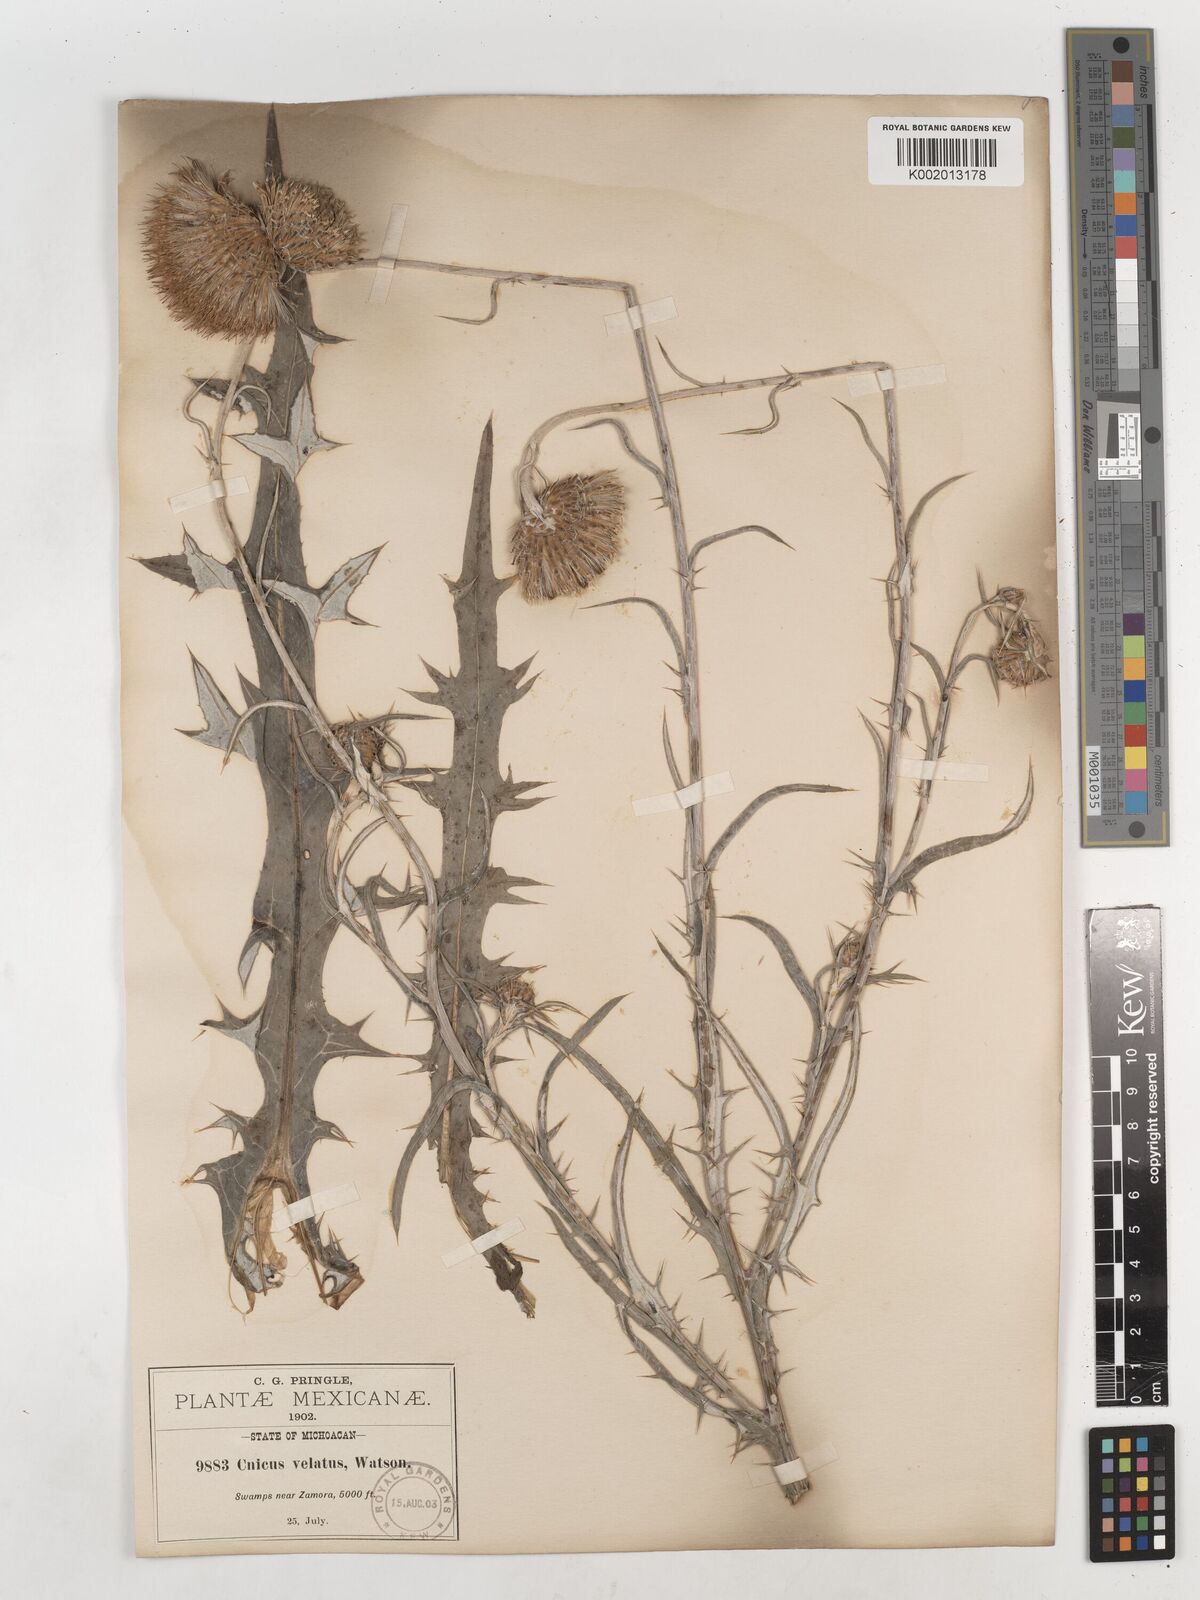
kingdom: Plantae
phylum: Tracheophyta
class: Magnoliopsida
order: Asterales
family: Asteraceae
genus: Cirsium
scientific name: Cirsium velatum
